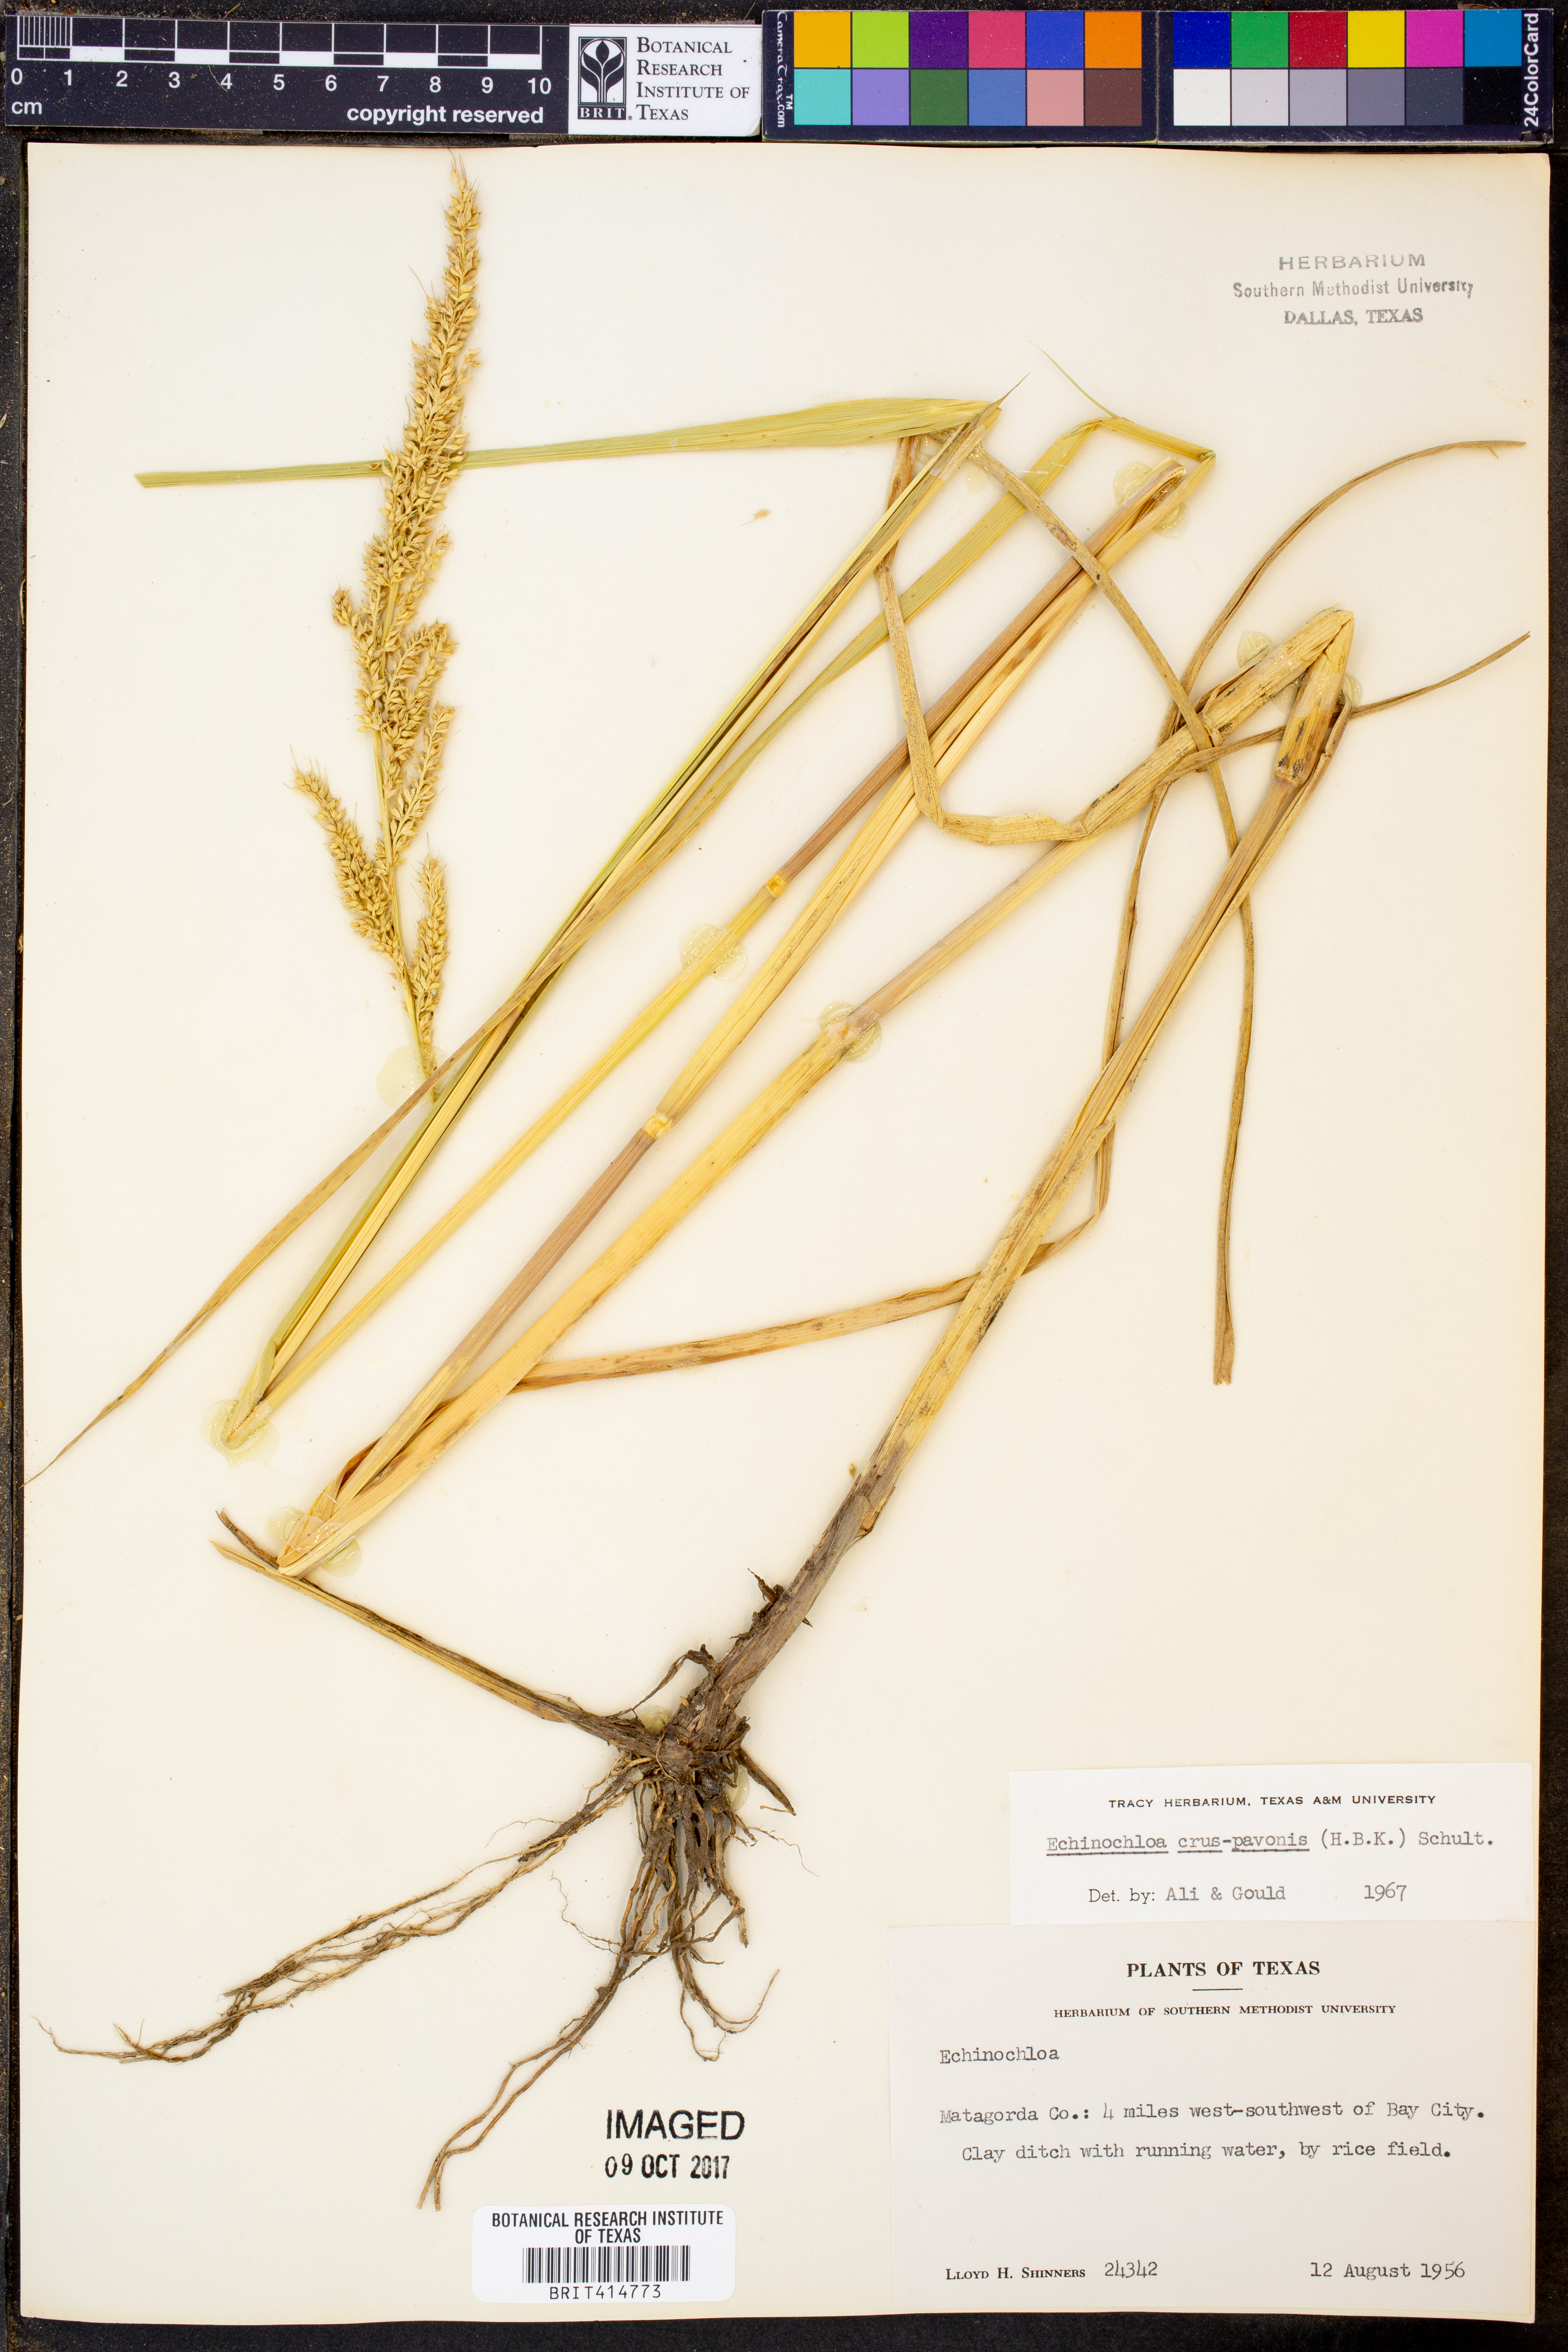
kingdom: Plantae
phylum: Tracheophyta
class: Liliopsida
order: Poales
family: Poaceae
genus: Echinochloa
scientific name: Echinochloa crus-pavonis
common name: Gulf cockspur grass
